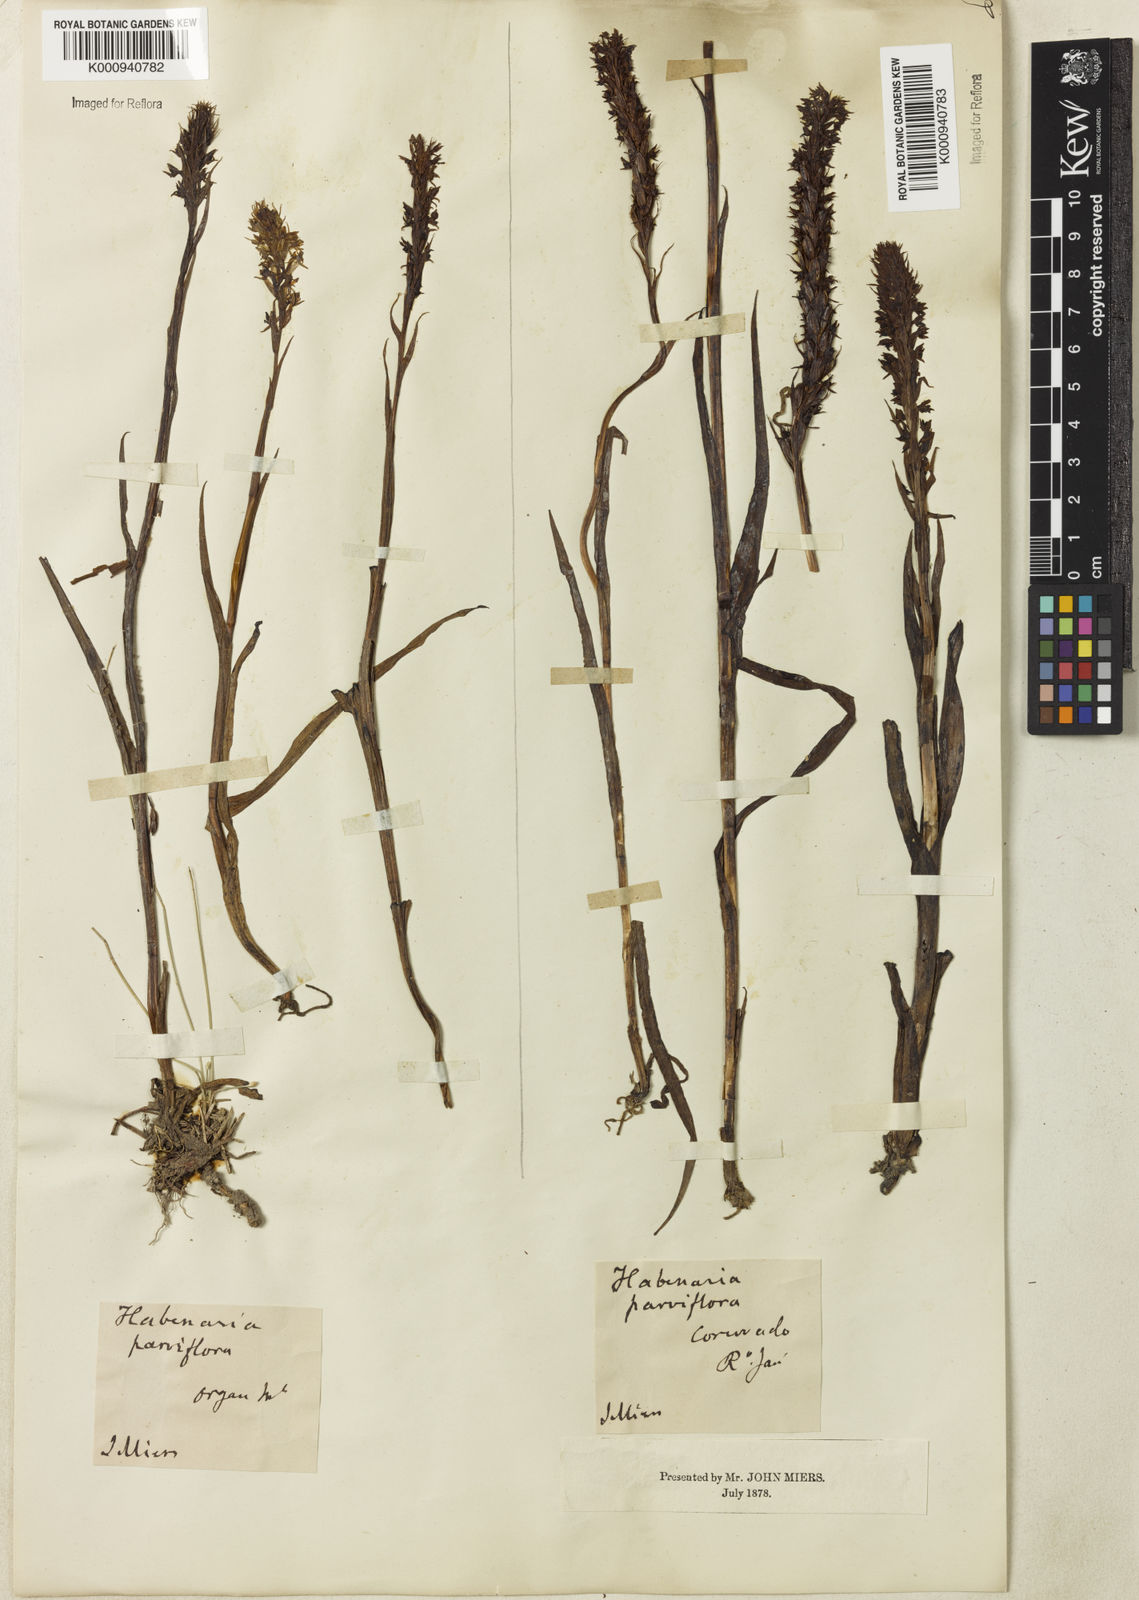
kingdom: Plantae
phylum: Tracheophyta
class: Liliopsida
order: Asparagales
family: Orchidaceae
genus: Habenaria
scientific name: Habenaria parviflora
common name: Small flowered habenaria
